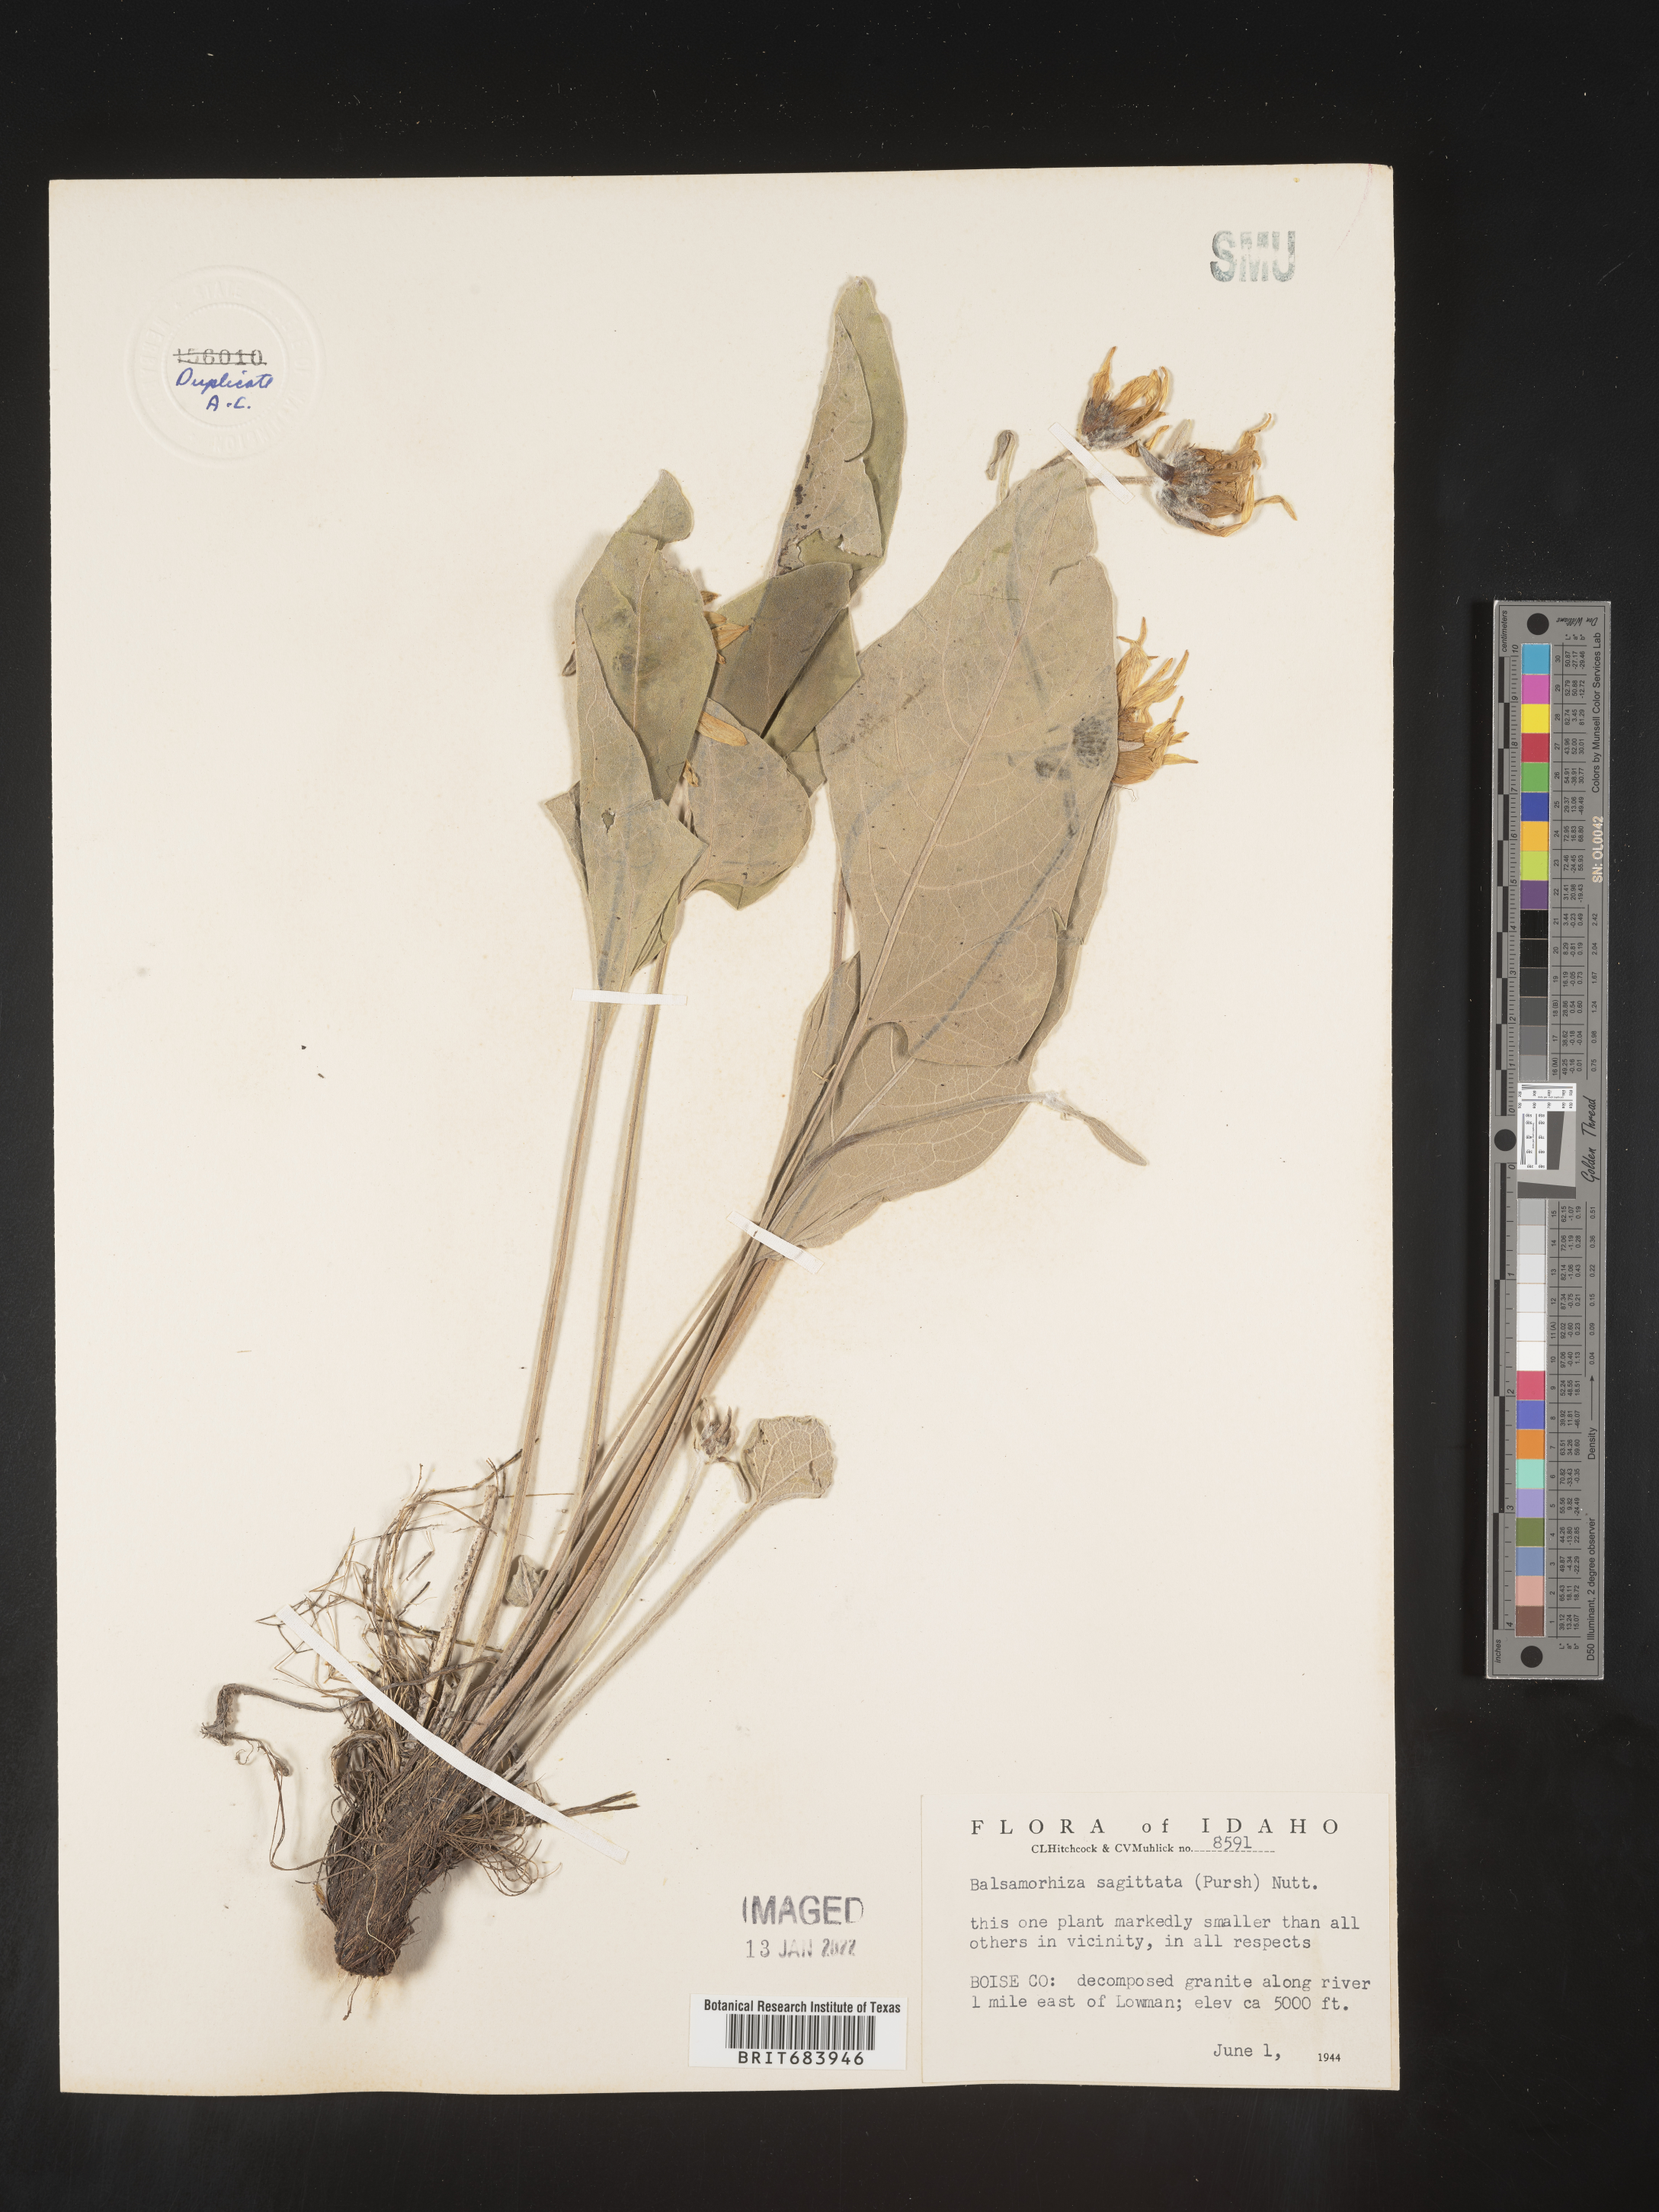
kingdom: Plantae
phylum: Tracheophyta
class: Magnoliopsida
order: Asterales
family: Asteraceae
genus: Wyethia
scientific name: Wyethia sagittata
